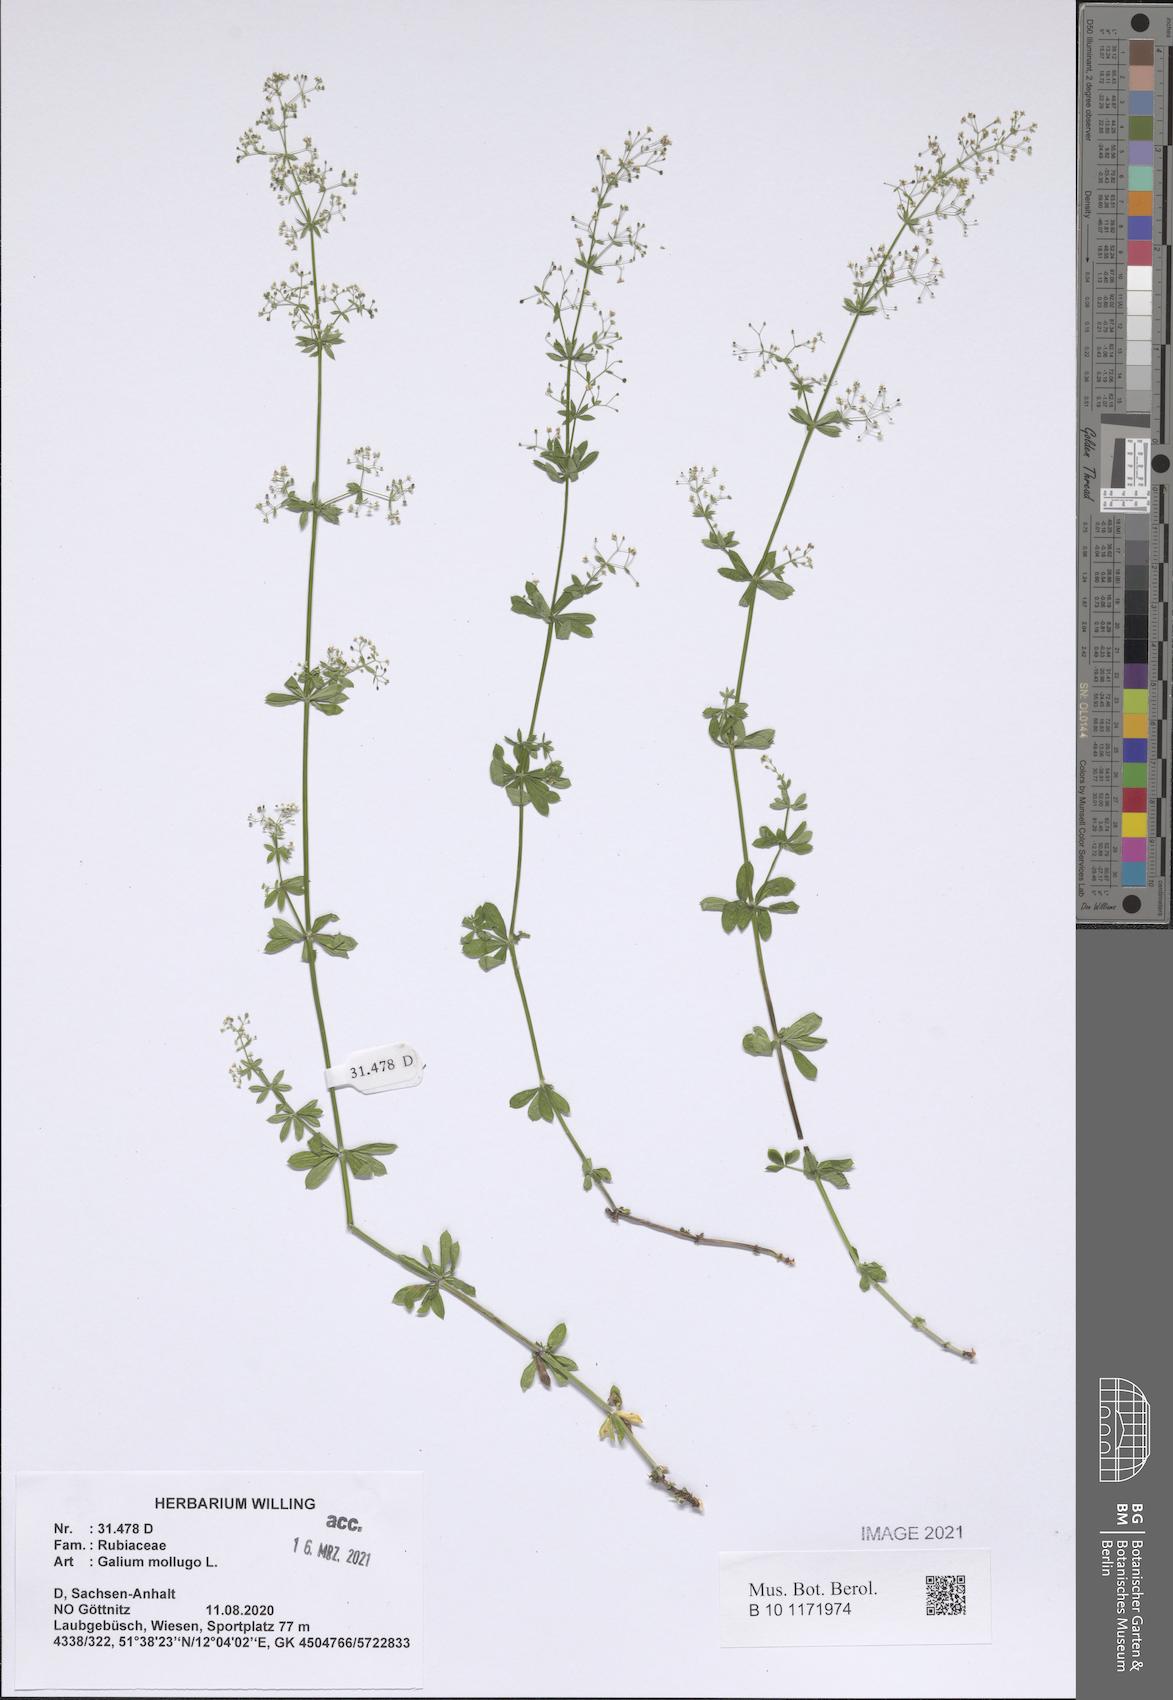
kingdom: Plantae
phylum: Tracheophyta
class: Magnoliopsida
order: Gentianales
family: Rubiaceae
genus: Galium
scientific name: Galium mollugo
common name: Hedge bedstraw
